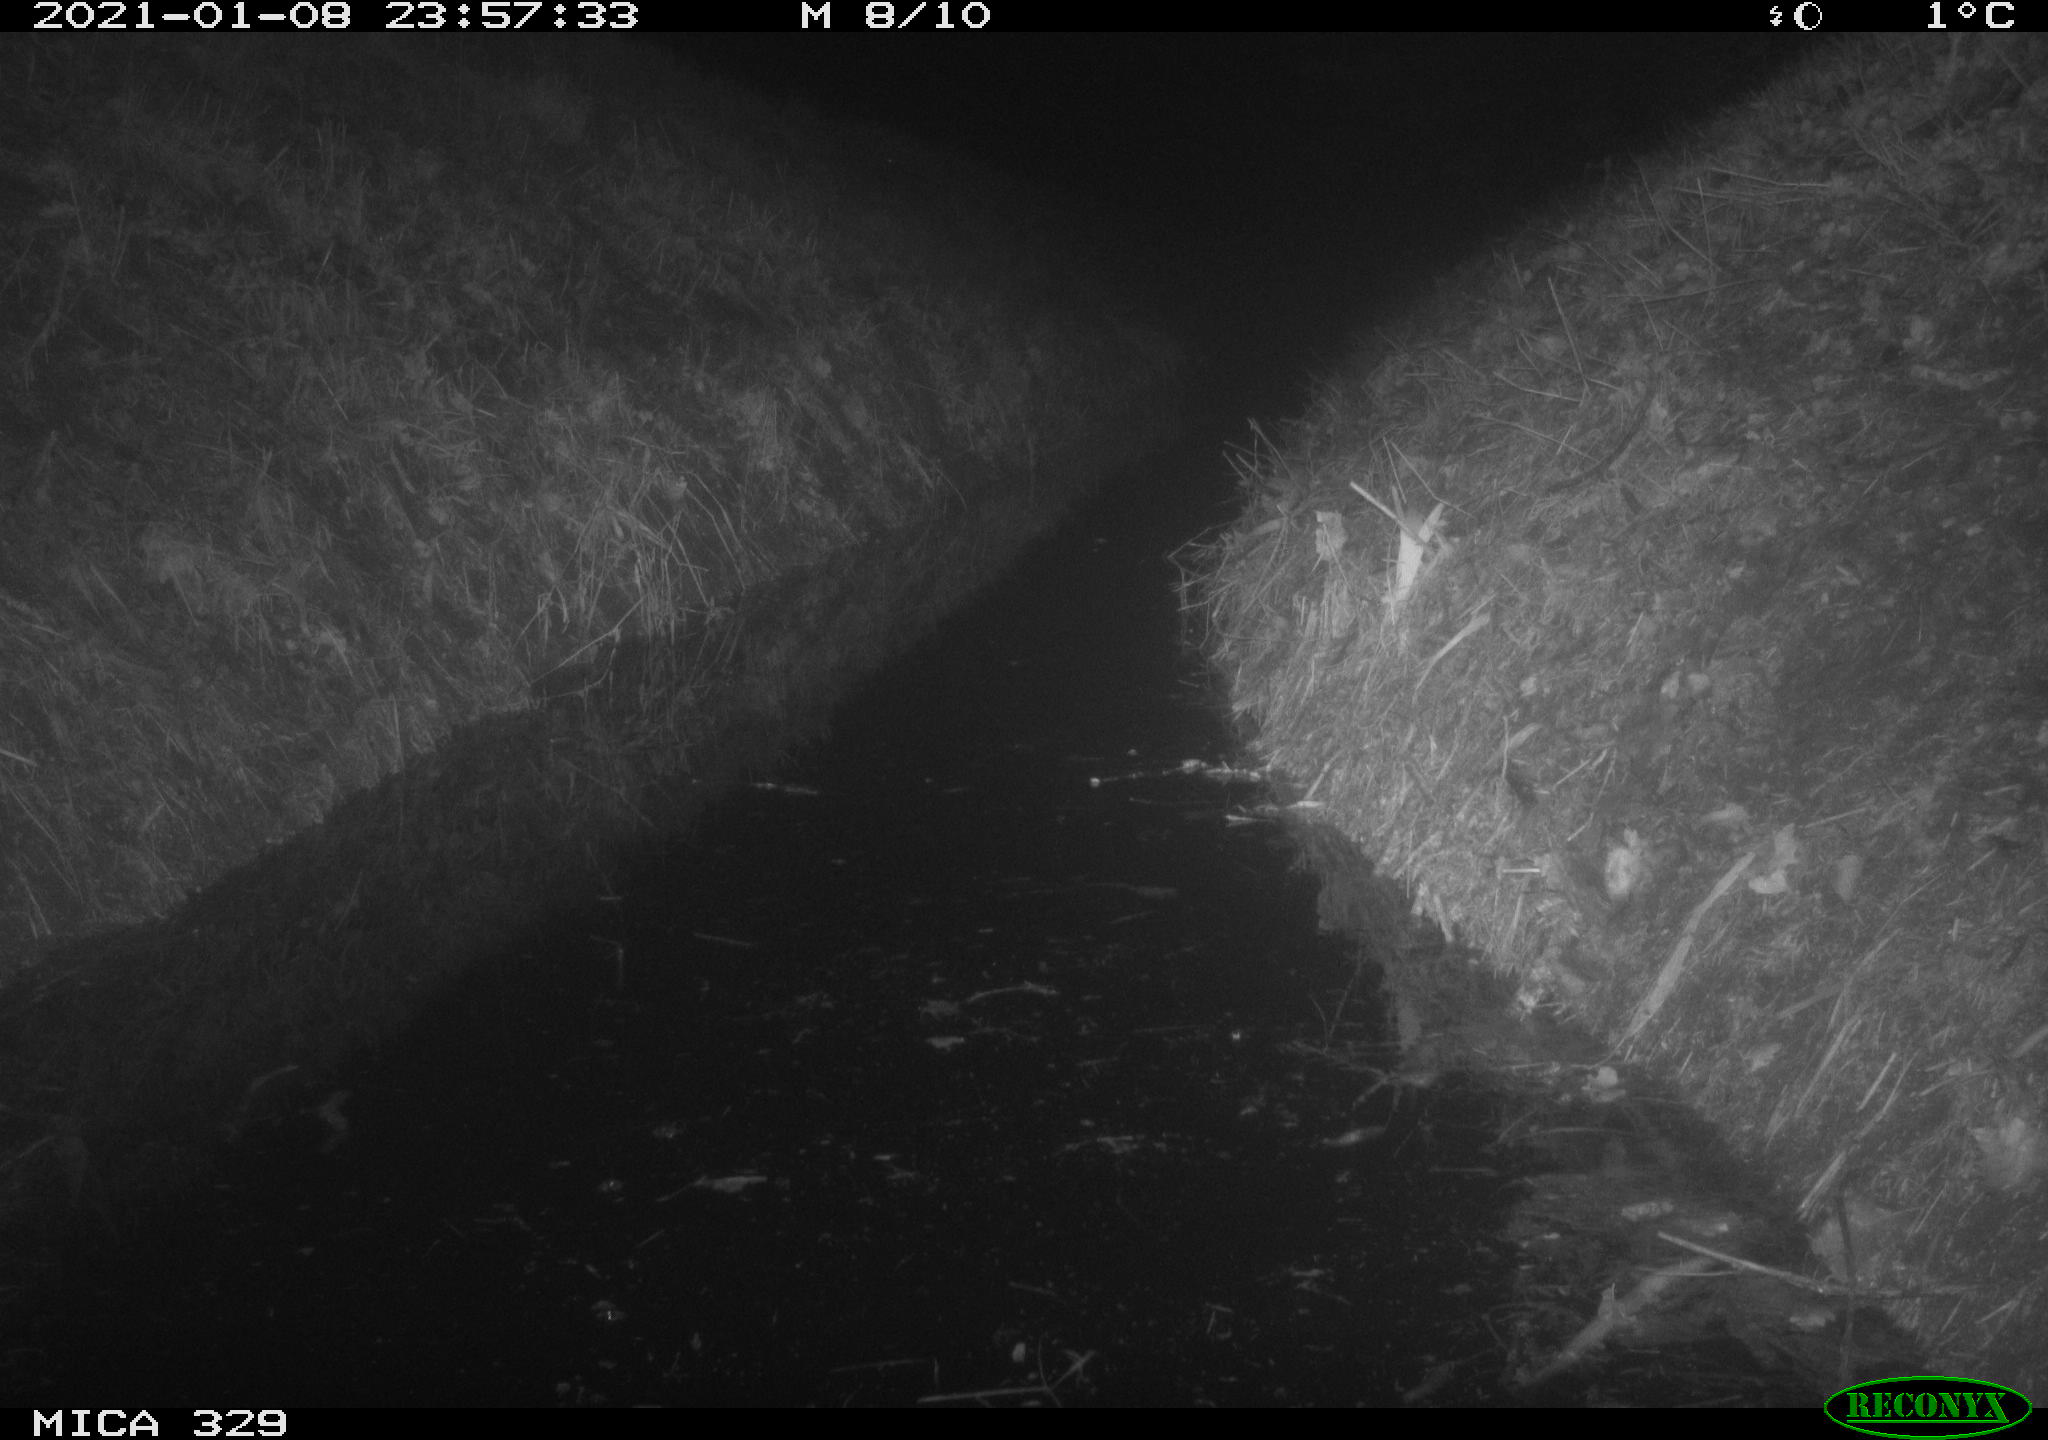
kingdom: Animalia
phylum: Chordata
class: Mammalia
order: Rodentia
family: Muridae
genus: Rattus
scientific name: Rattus norvegicus
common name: Brown rat
